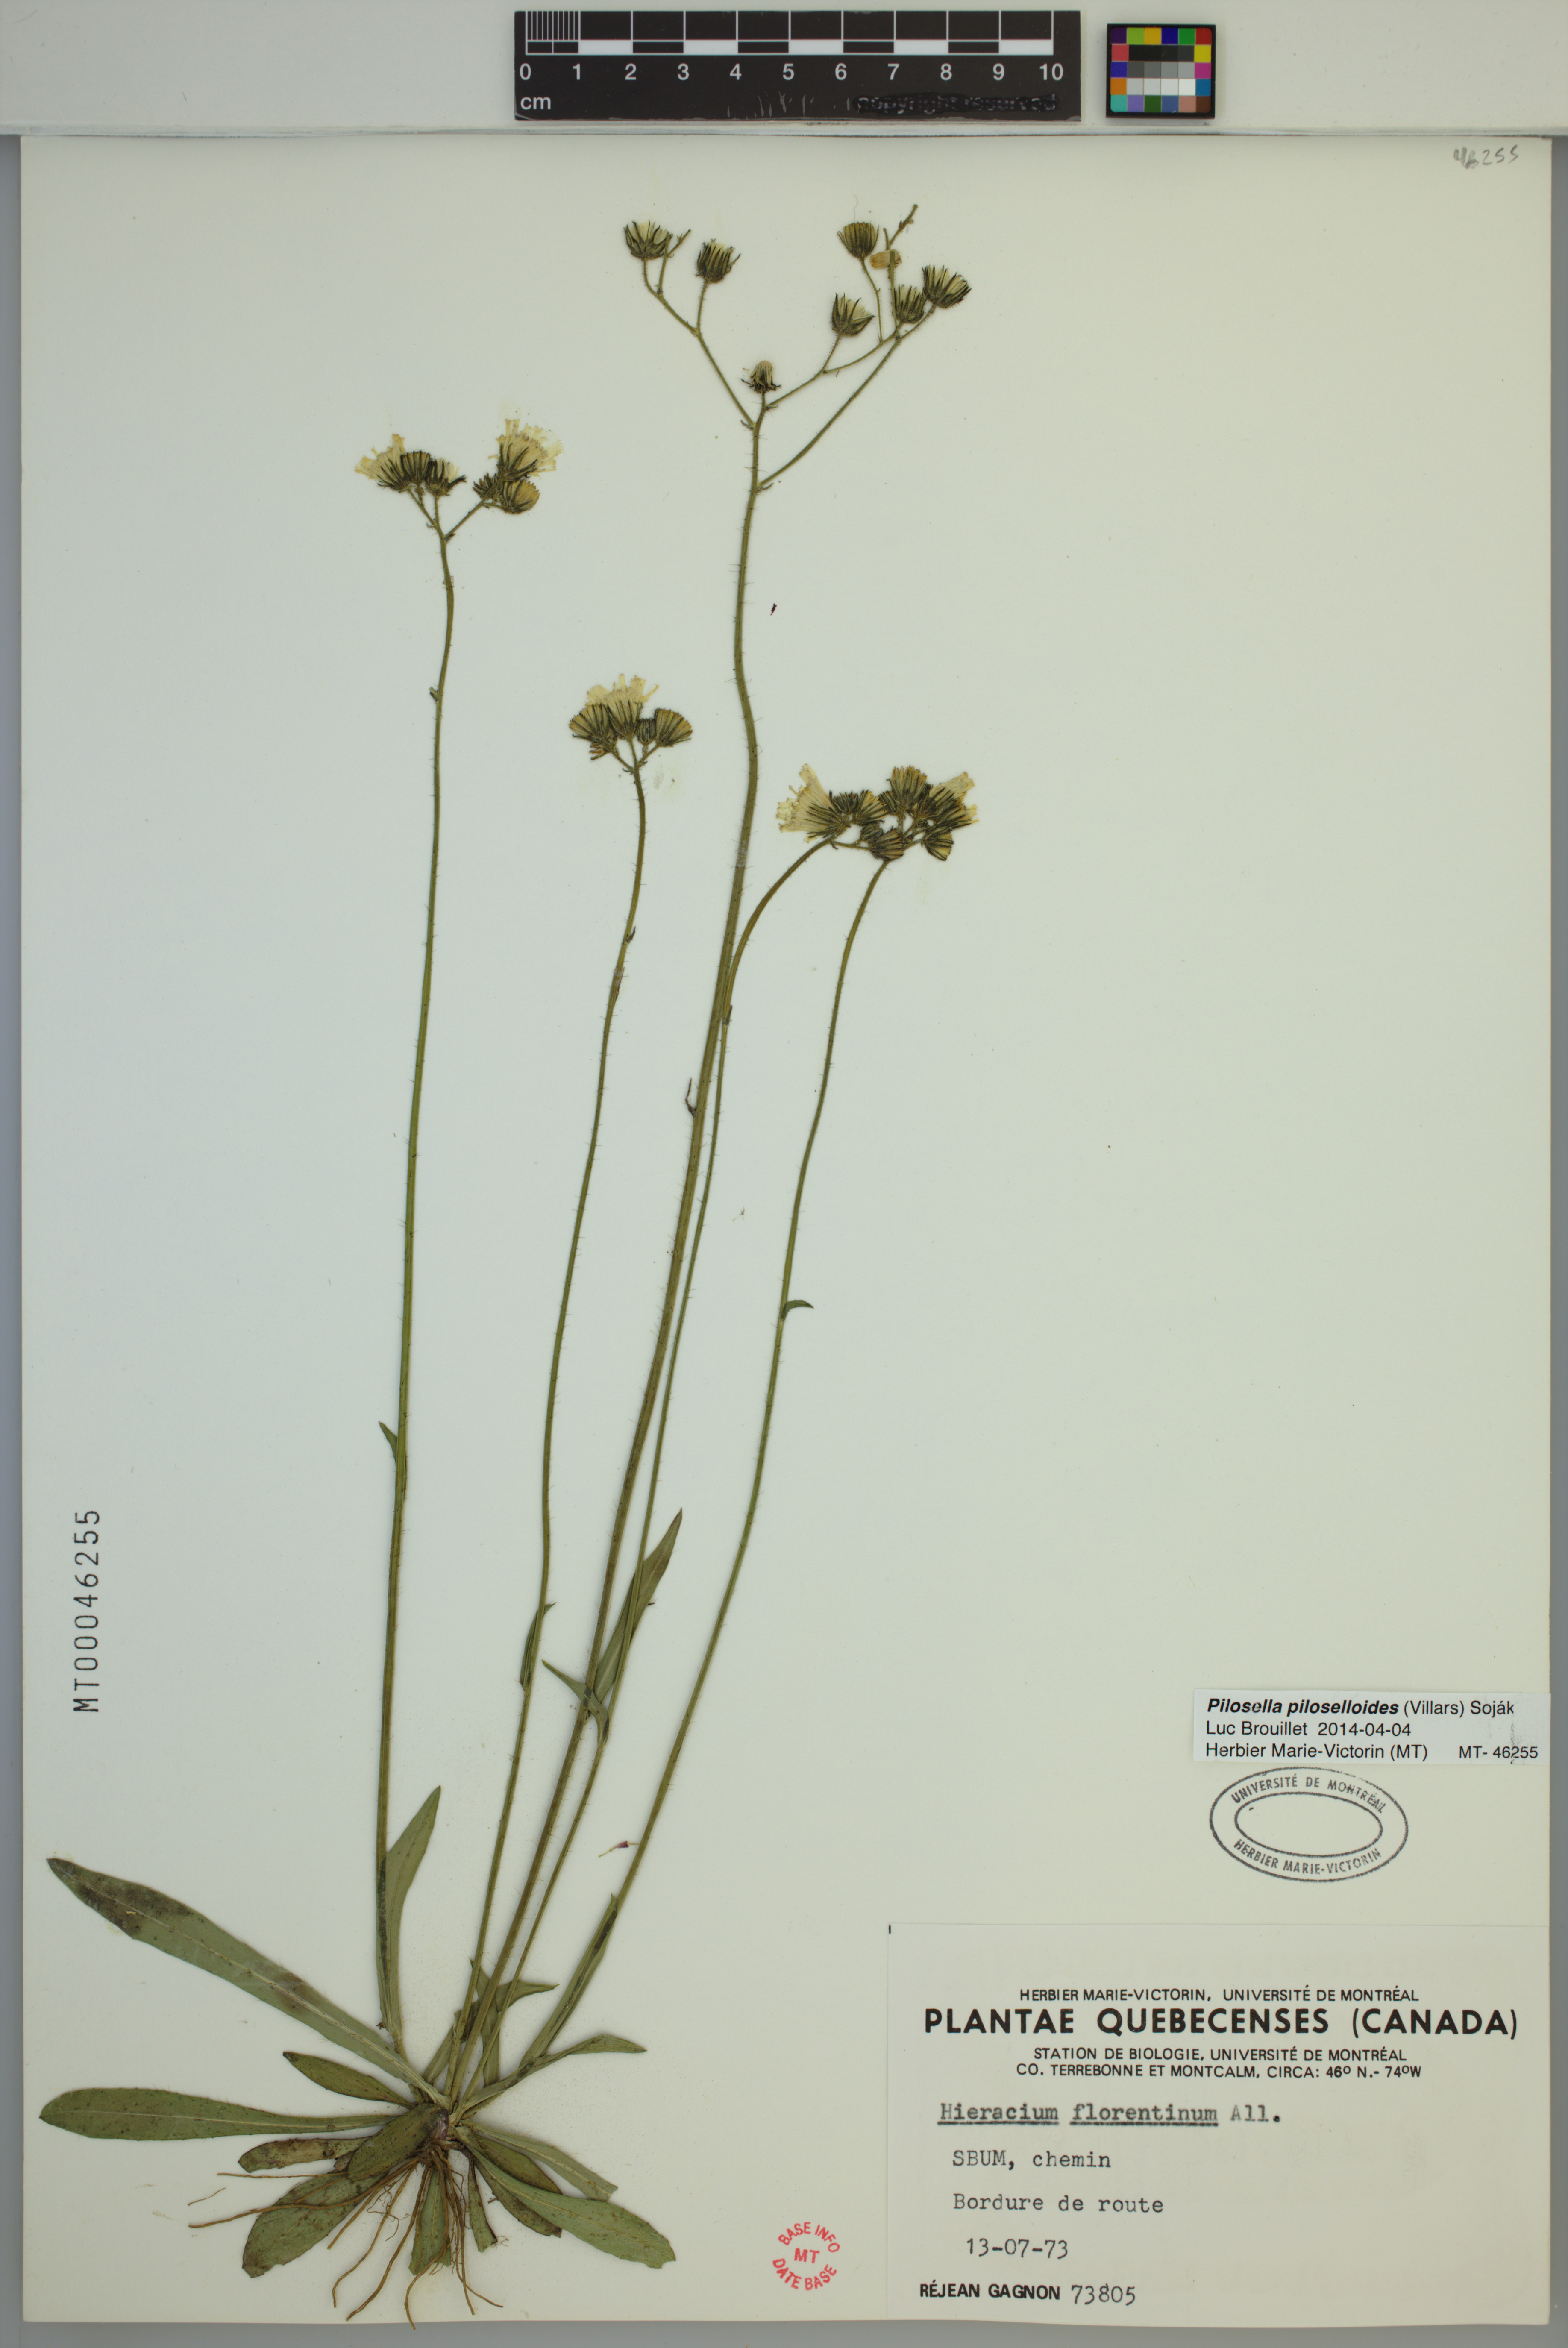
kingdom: Plantae
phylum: Tracheophyta
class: Magnoliopsida
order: Asterales
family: Asteraceae
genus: Pilosella
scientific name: Pilosella piloselloides
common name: Glaucous king-devil
